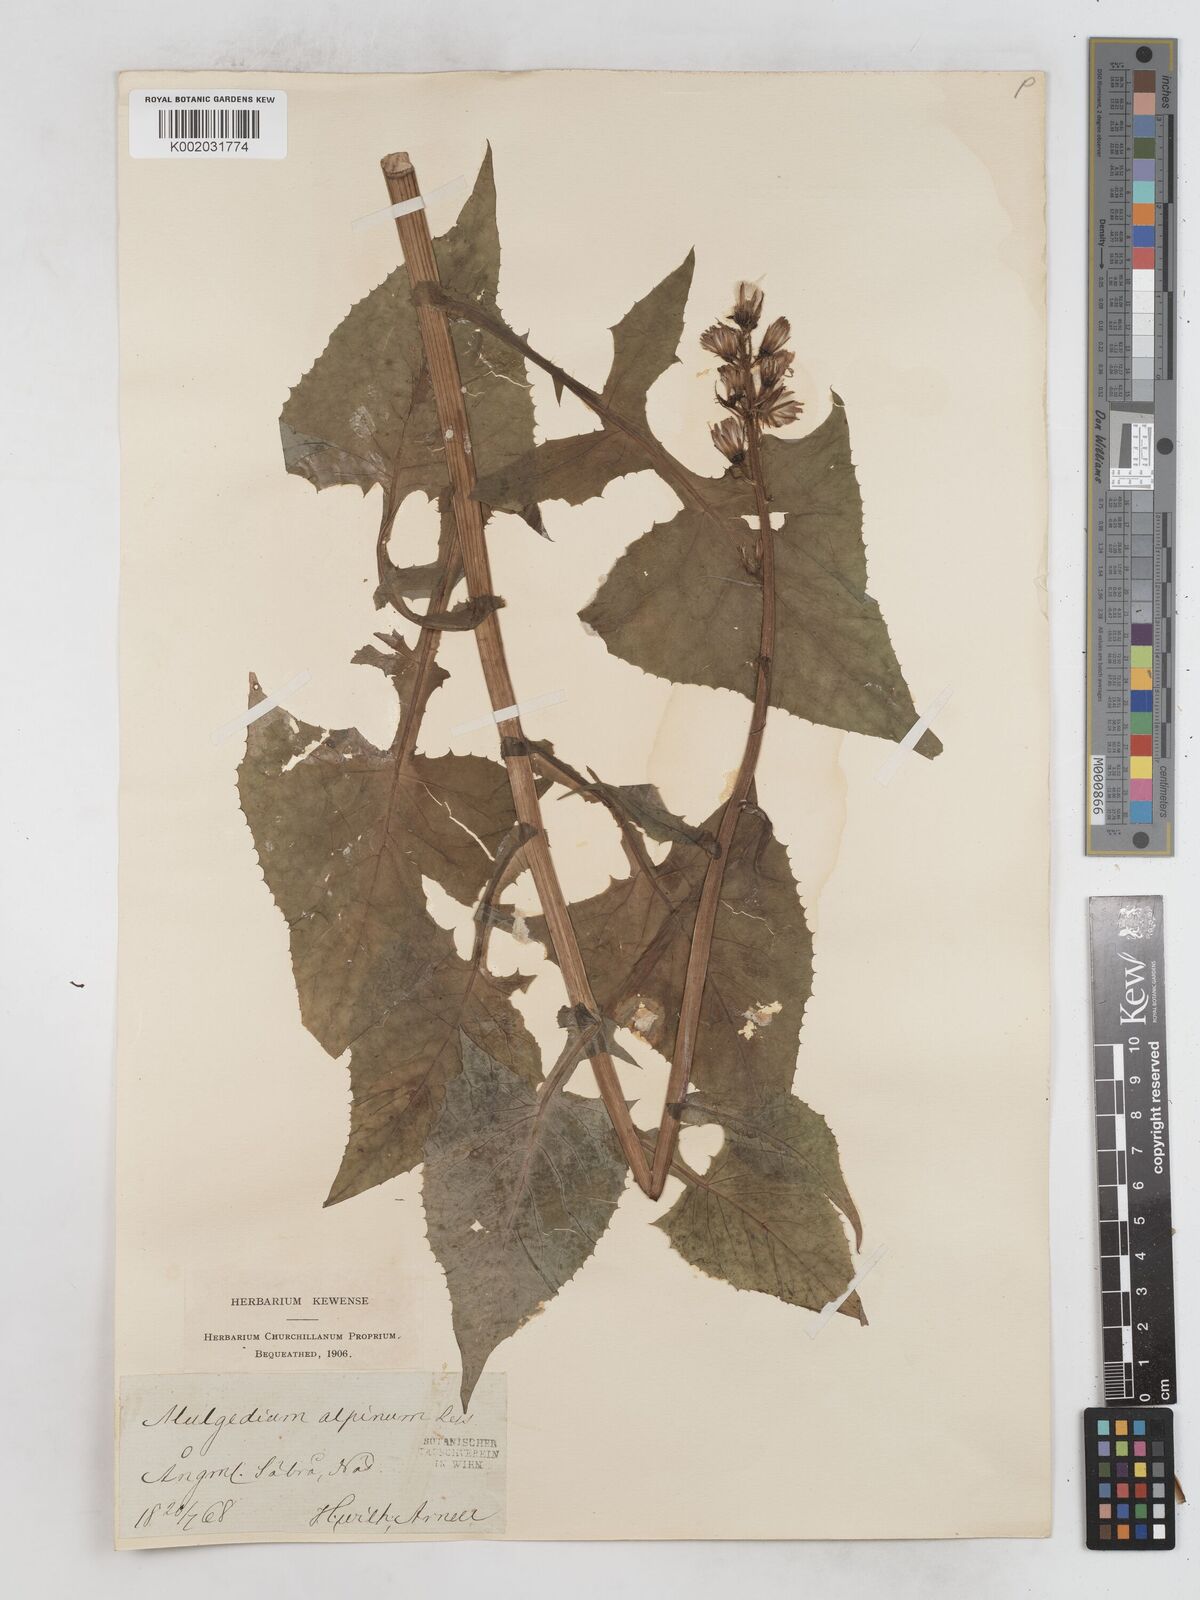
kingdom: Plantae
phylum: Tracheophyta
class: Magnoliopsida
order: Asterales
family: Asteraceae
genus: Cicerbita
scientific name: Cicerbita alpina
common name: Alpine blue-sow-thistle
